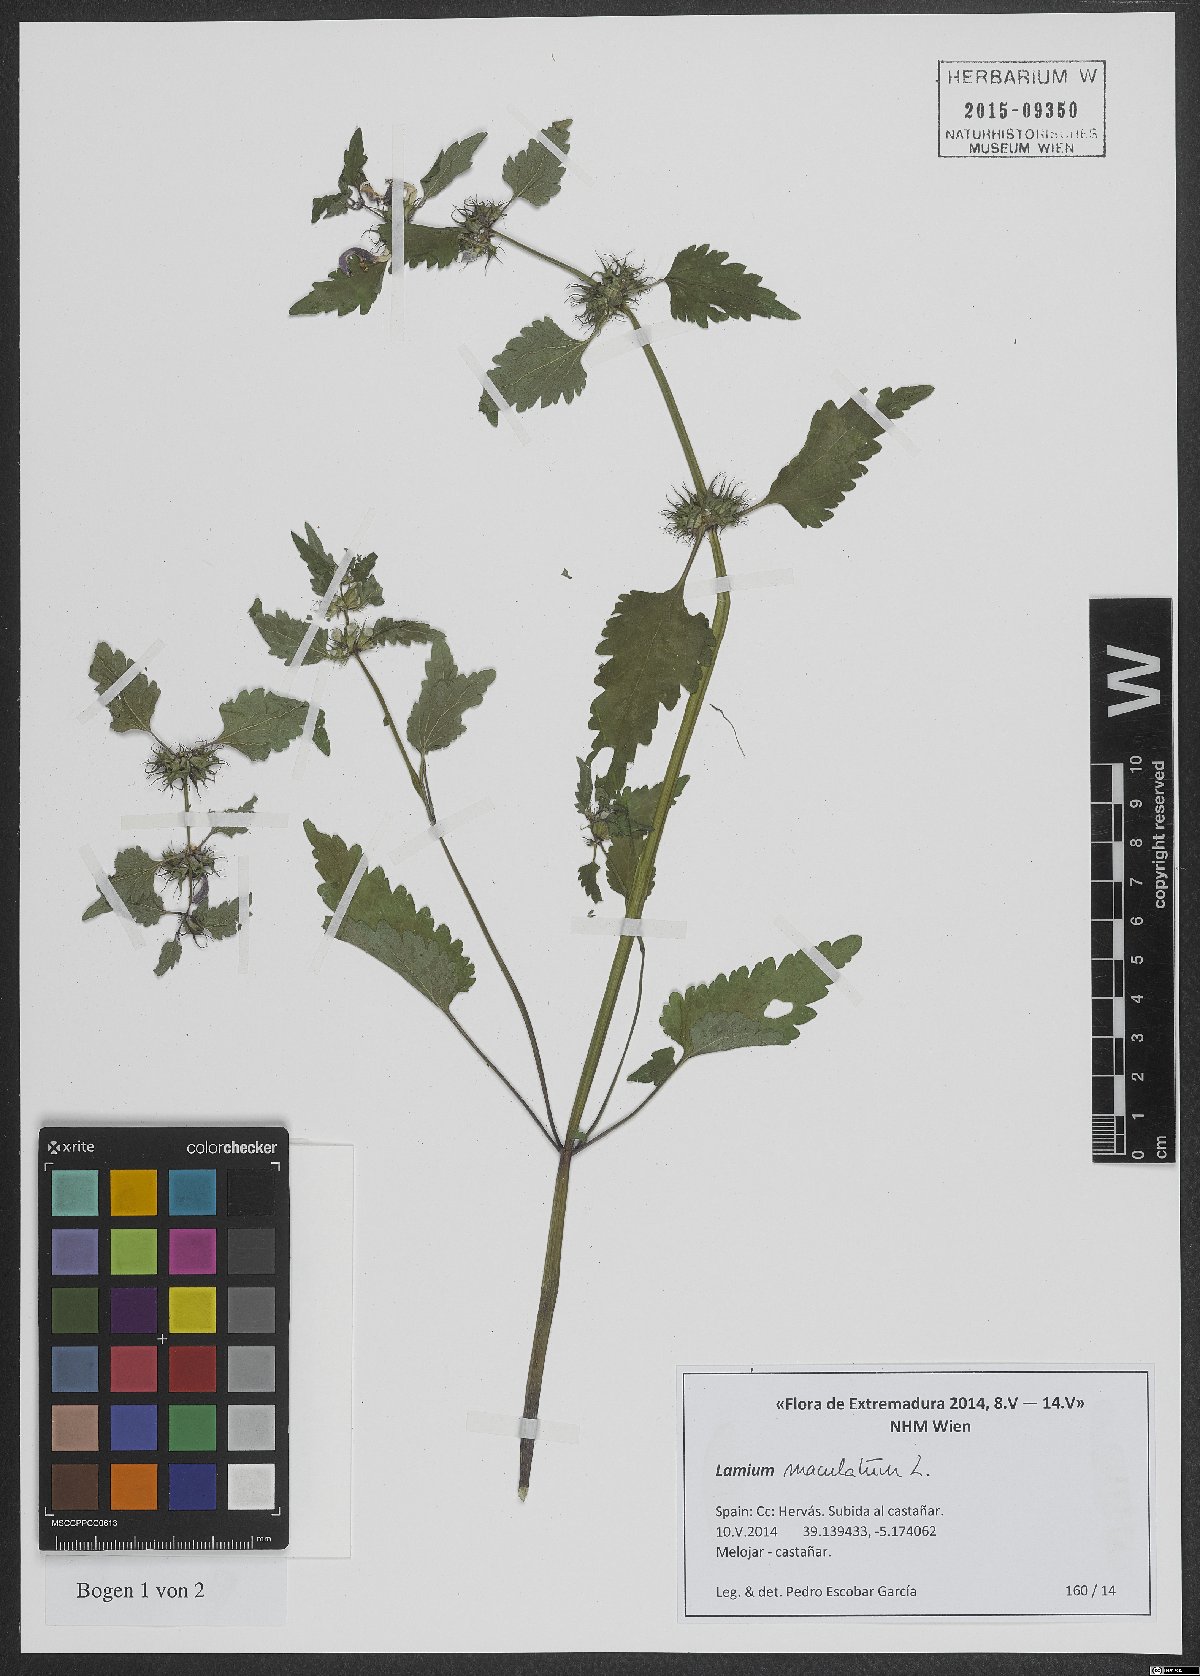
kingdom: Plantae
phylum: Tracheophyta
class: Magnoliopsida
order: Lamiales
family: Lamiaceae
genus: Lamium
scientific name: Lamium maculatum
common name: Spotted dead-nettle
